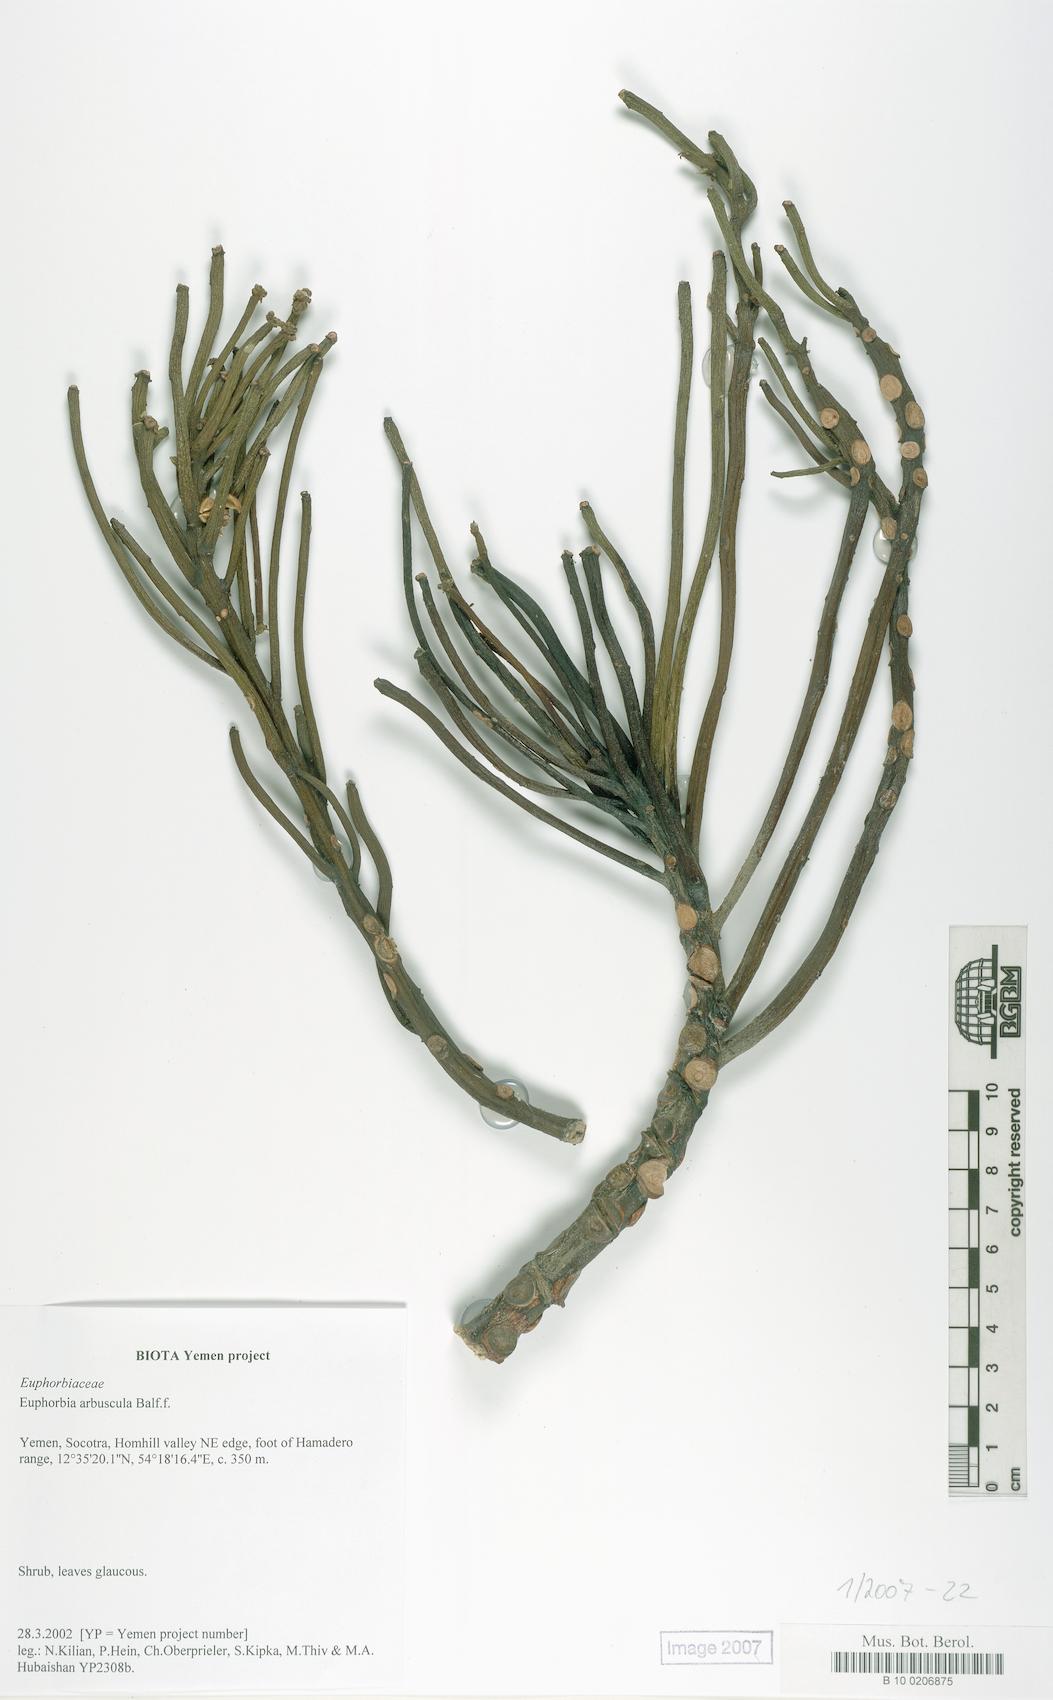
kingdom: Plantae
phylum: Tracheophyta
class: Magnoliopsida
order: Malpighiales
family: Euphorbiaceae
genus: Euphorbia
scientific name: Euphorbia arbuscula
